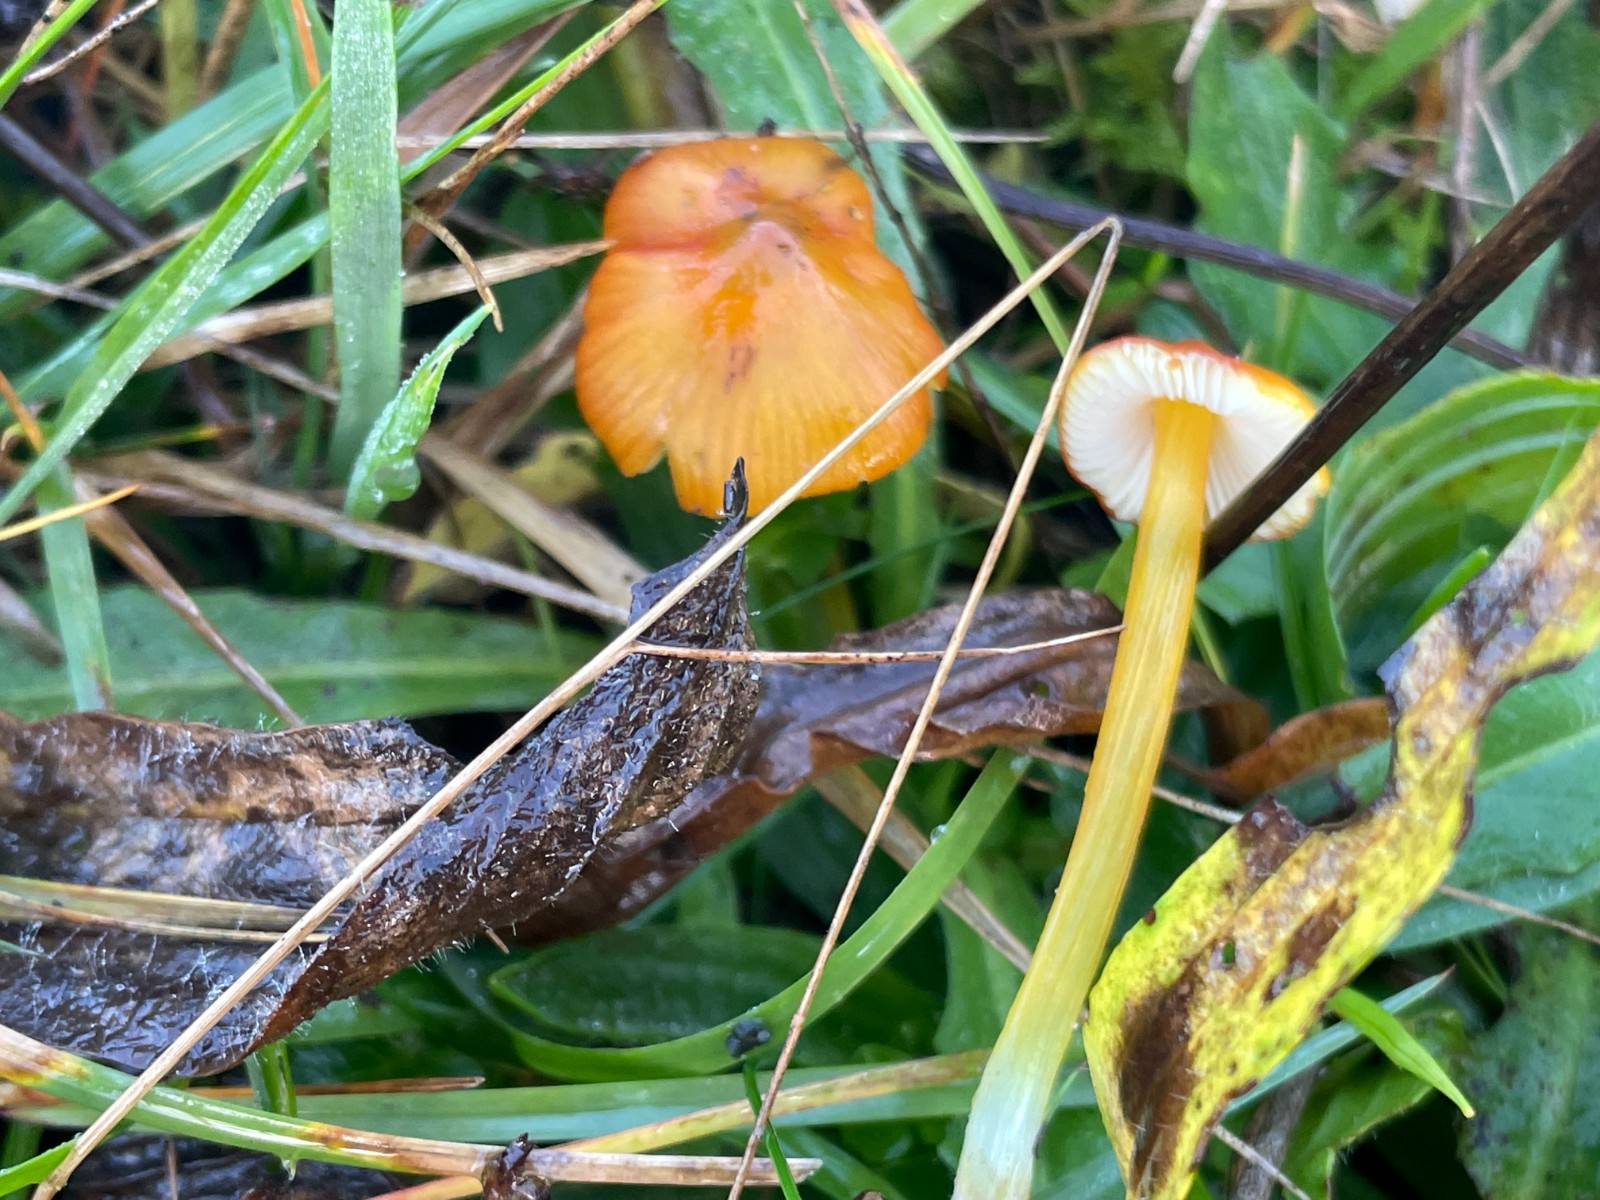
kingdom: Fungi
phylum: Basidiomycota
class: Agaricomycetes
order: Agaricales
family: Hygrophoraceae
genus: Hygrocybe
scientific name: Hygrocybe
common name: vokshat
